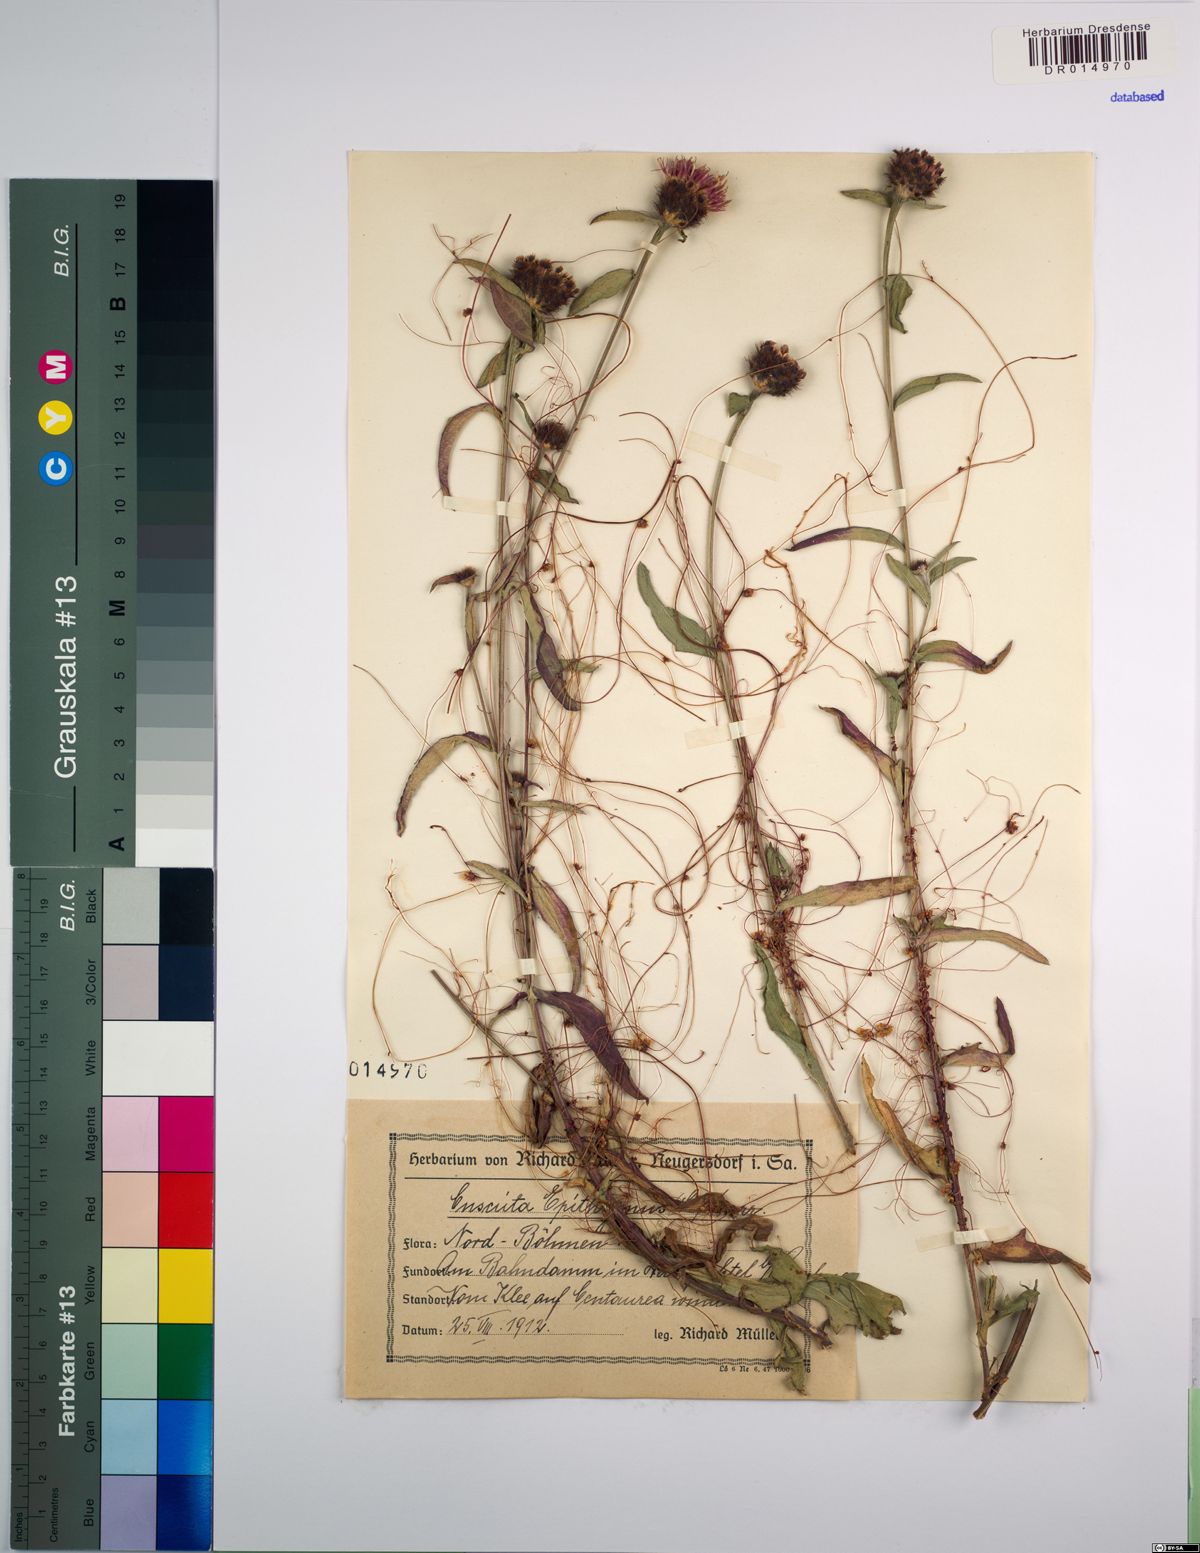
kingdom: Plantae
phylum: Tracheophyta
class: Magnoliopsida
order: Solanales
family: Convolvulaceae
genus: Cuscuta
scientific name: Cuscuta epithymum
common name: Clover dodder
